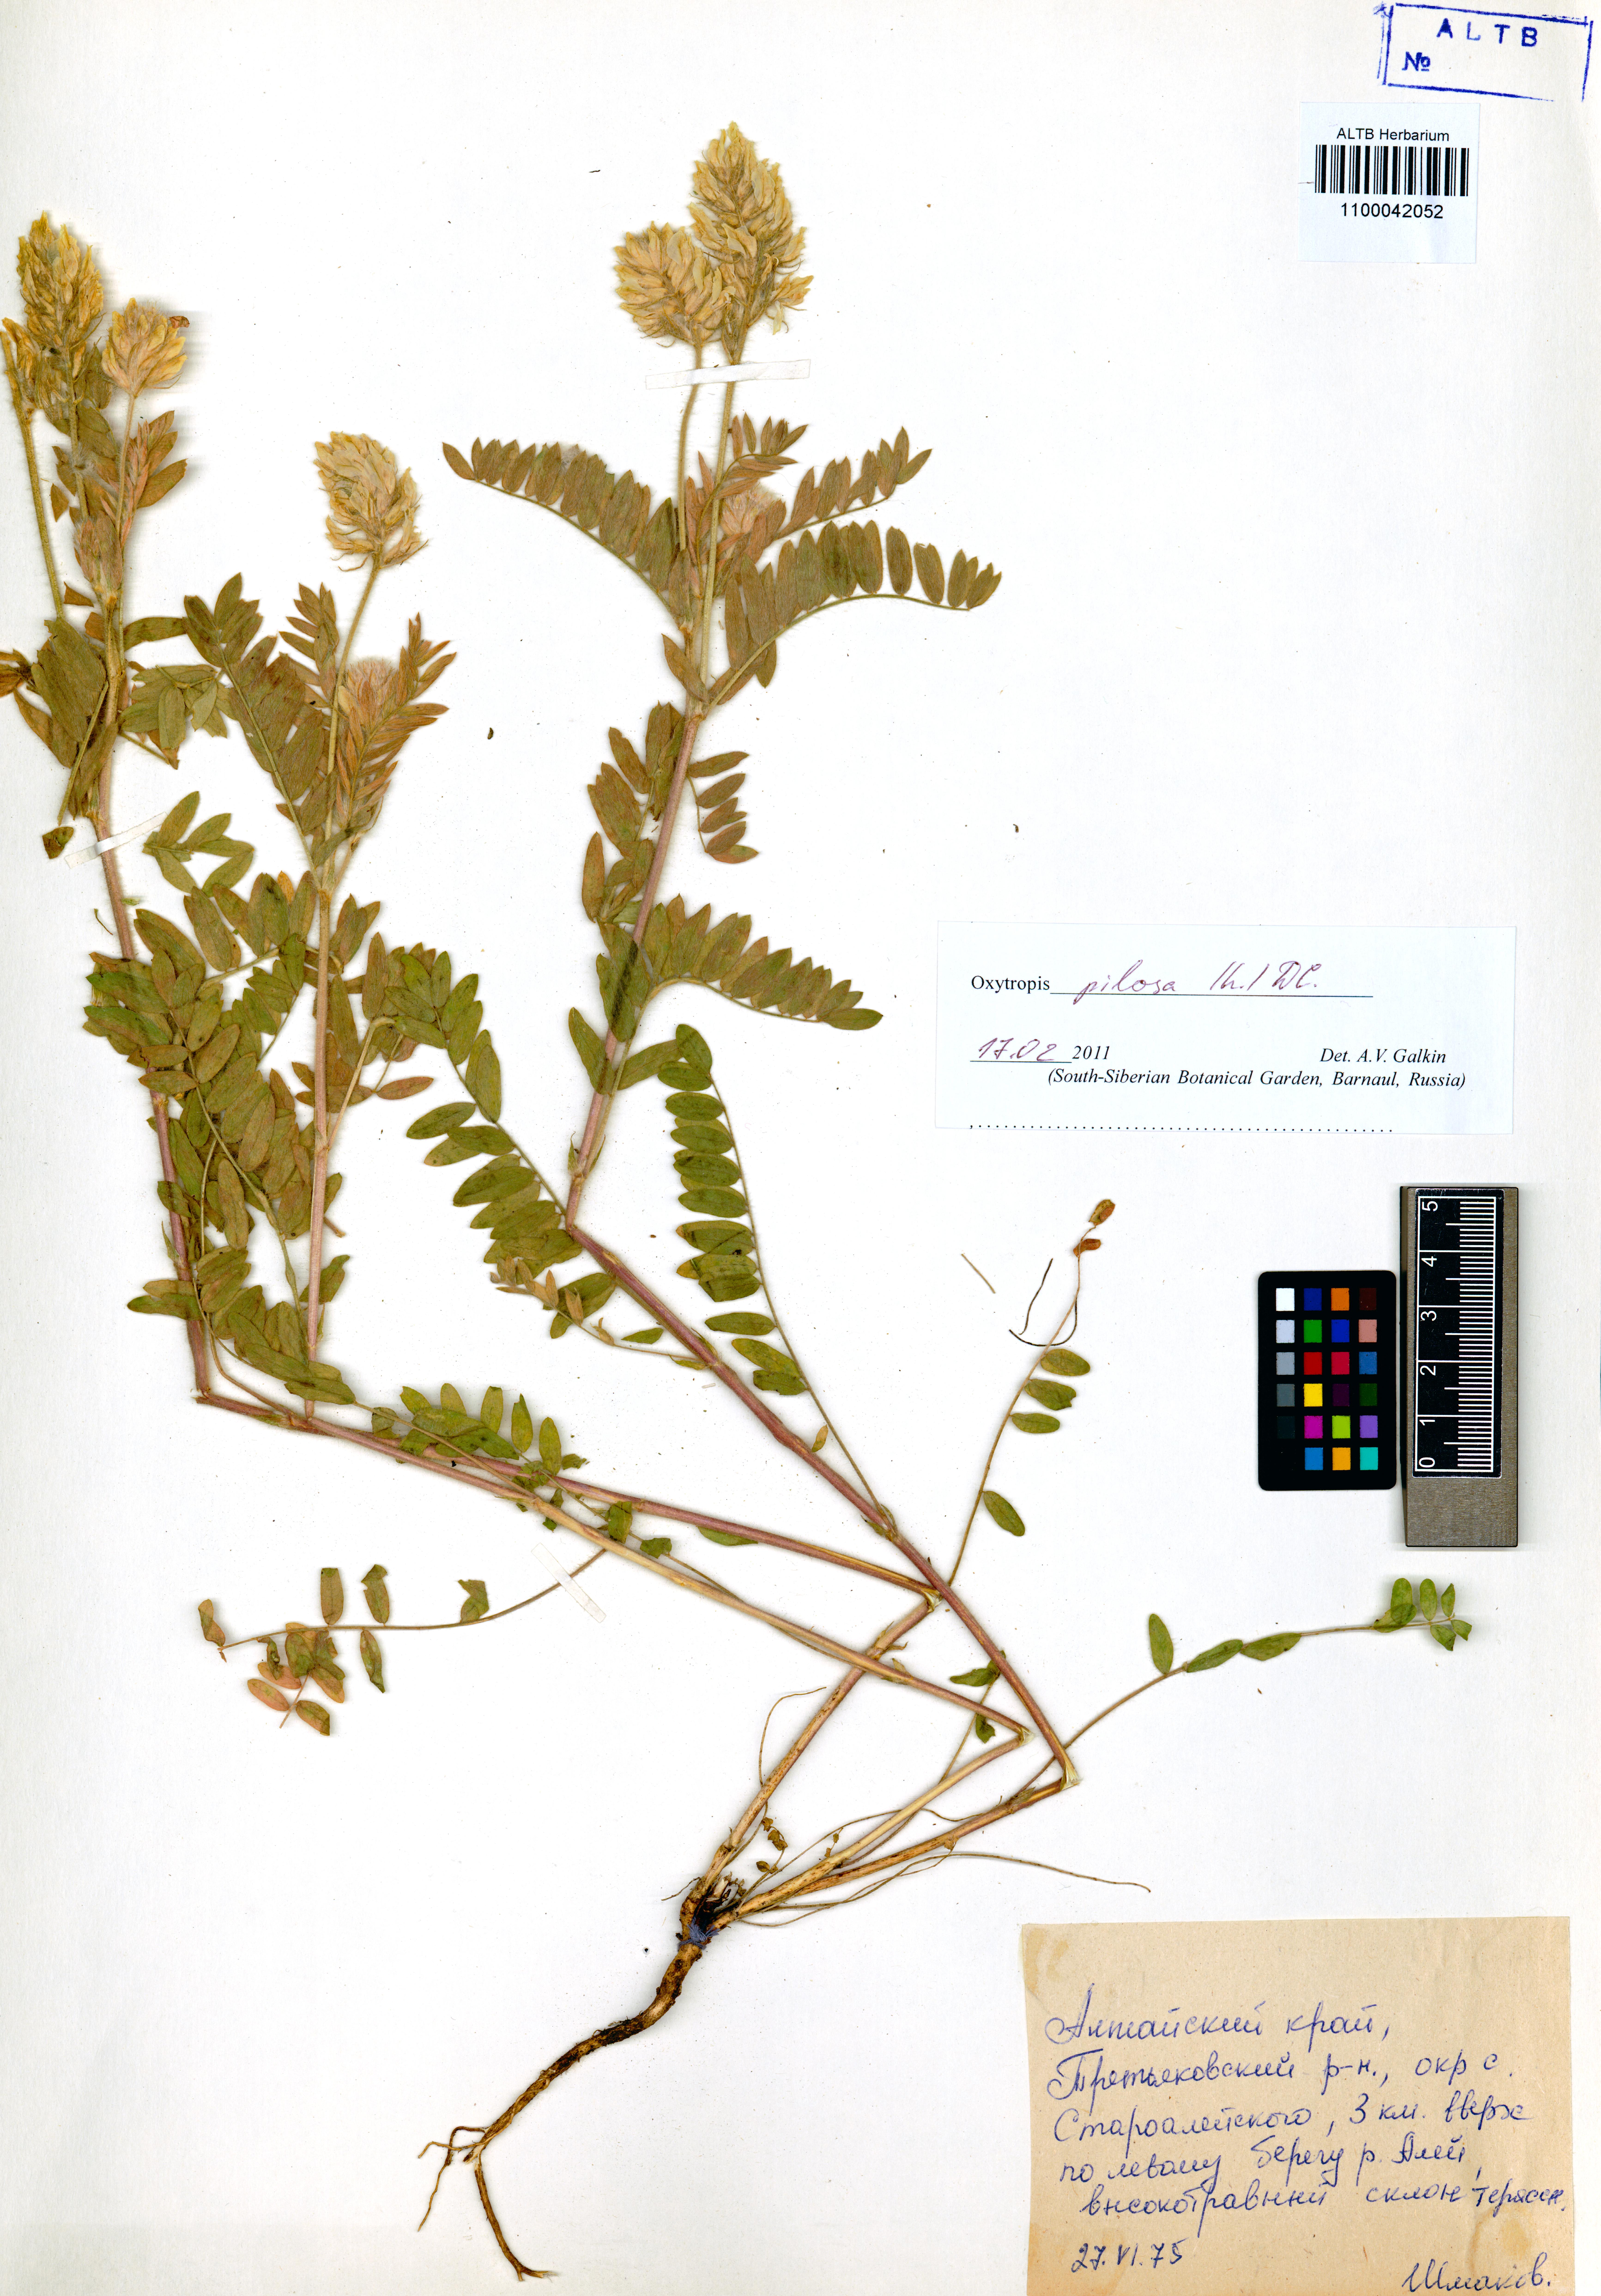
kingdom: Plantae
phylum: Tracheophyta
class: Magnoliopsida
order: Fabales
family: Fabaceae
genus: Oxytropis
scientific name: Oxytropis pilosa
